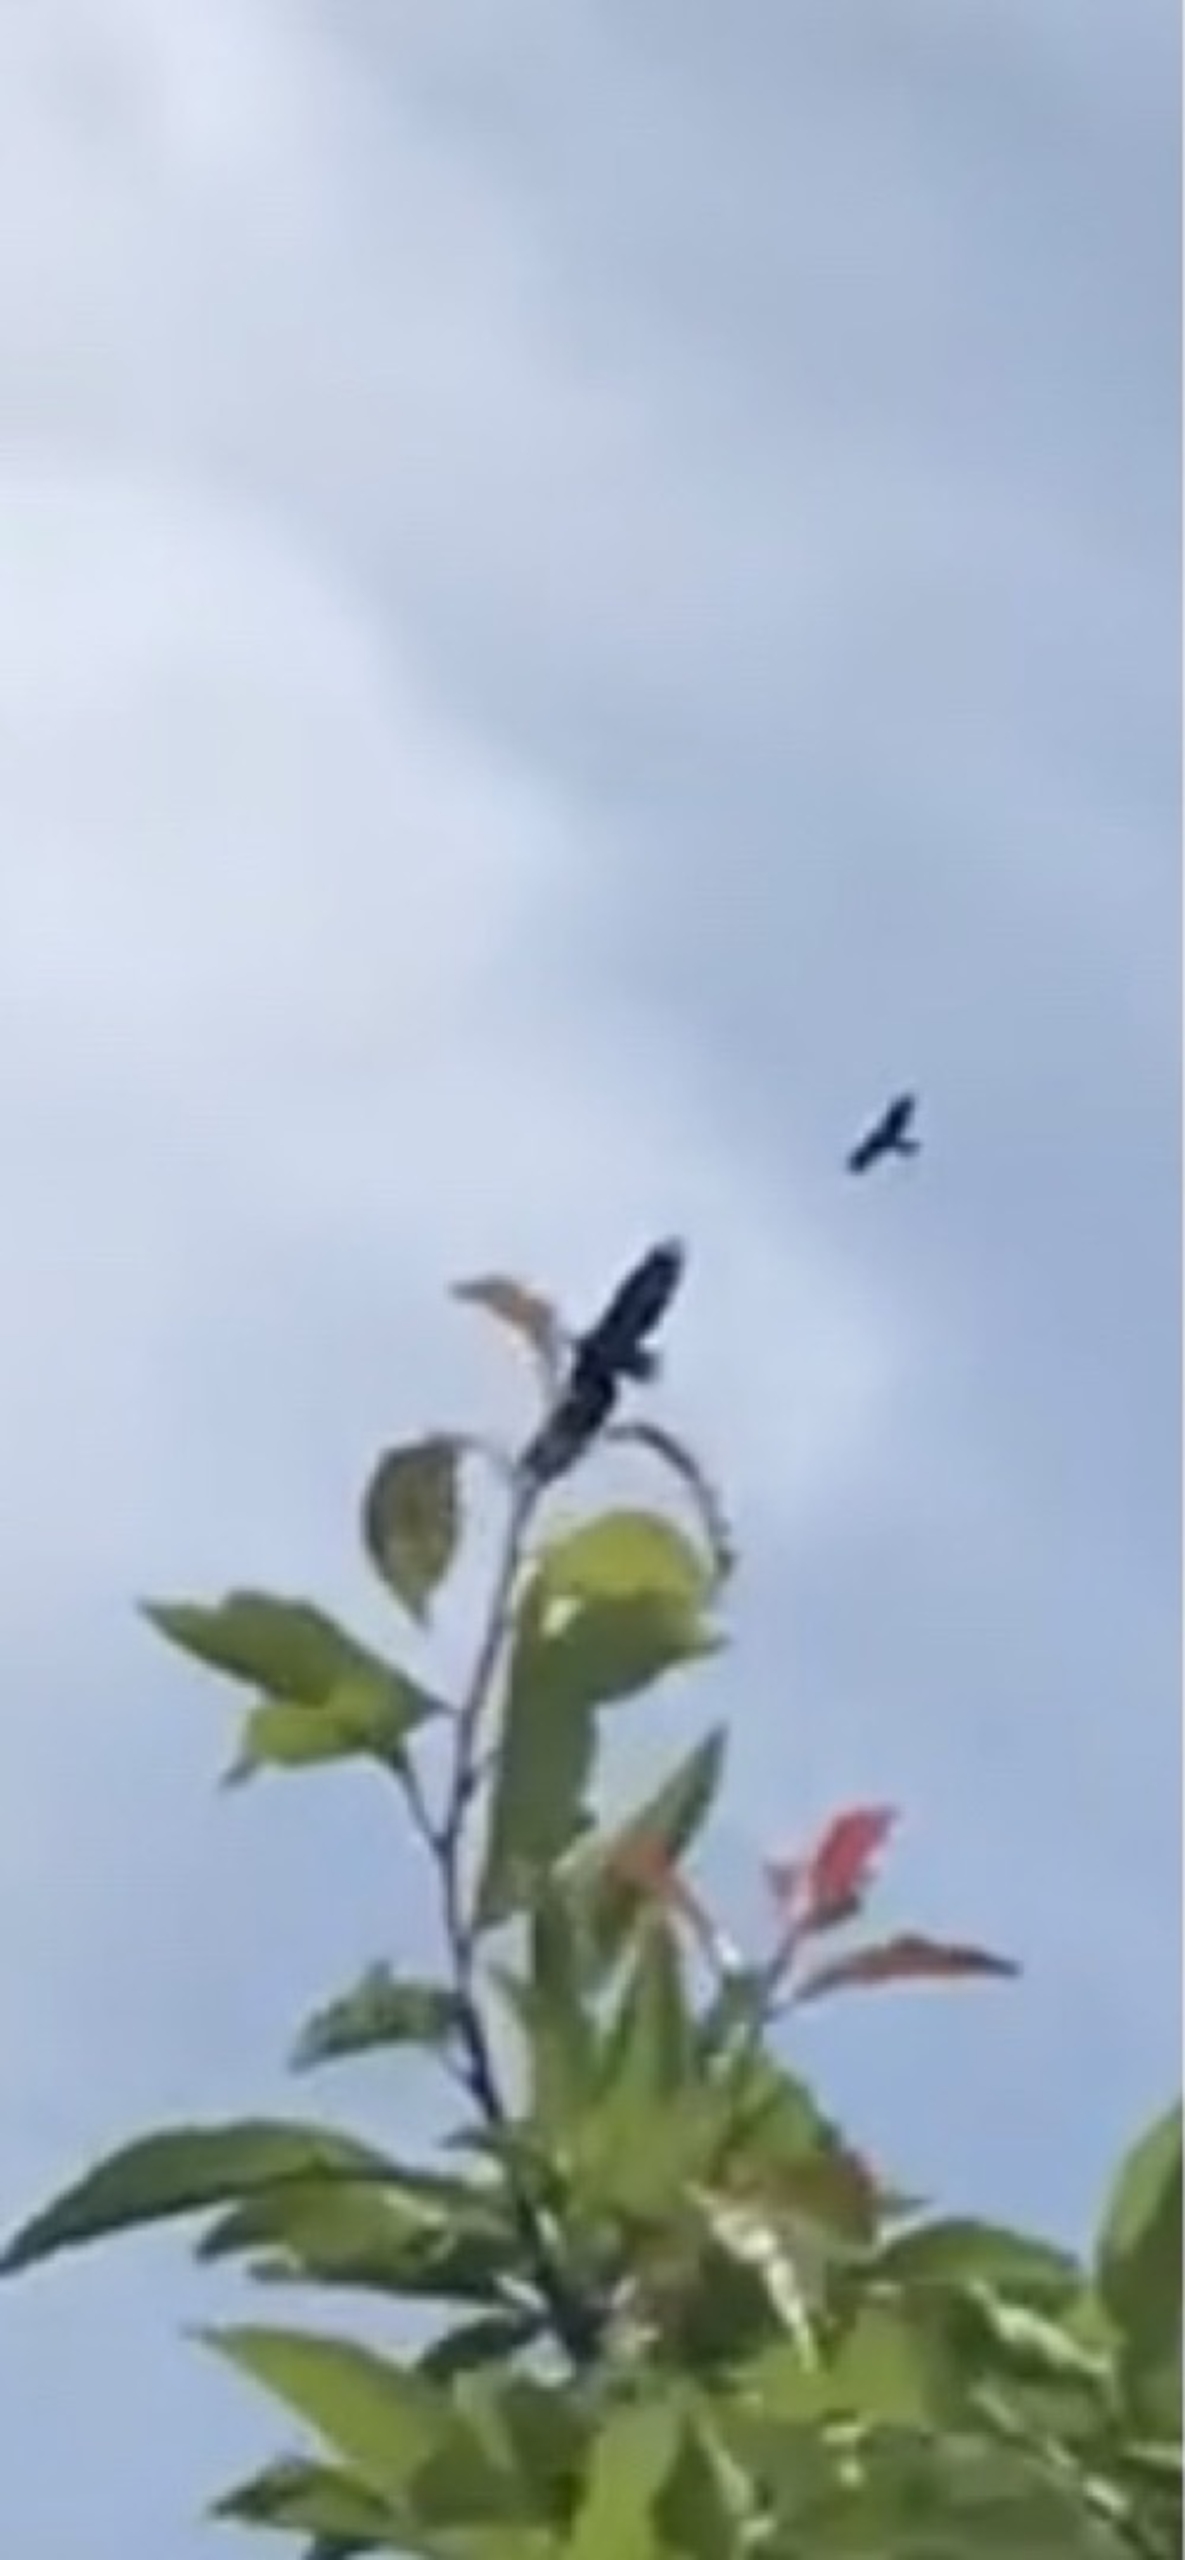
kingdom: Animalia
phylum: Chordata
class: Aves
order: Accipitriformes
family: Accipitridae
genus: Haliaeetus
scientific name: Haliaeetus albicilla
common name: Havørn
